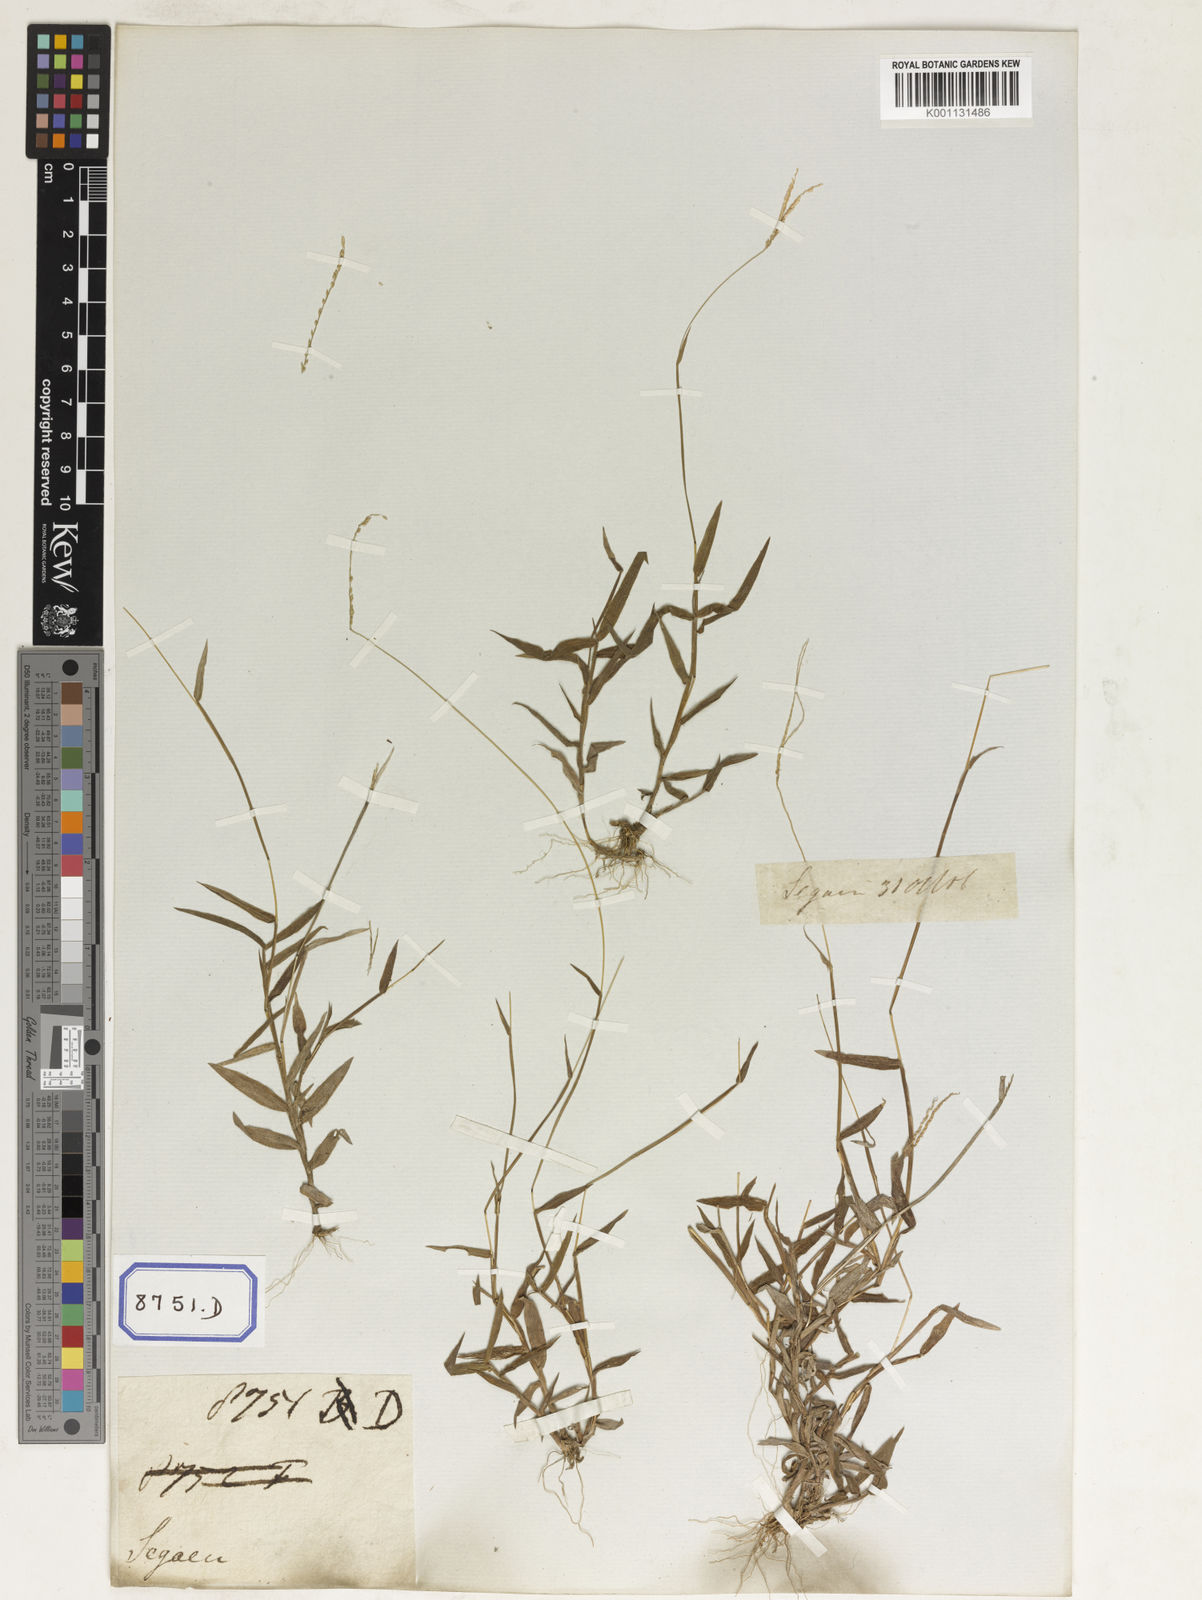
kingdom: Plantae
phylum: Tracheophyta
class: Liliopsida
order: Poales
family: Poaceae
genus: Paspalum
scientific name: Paspalum
